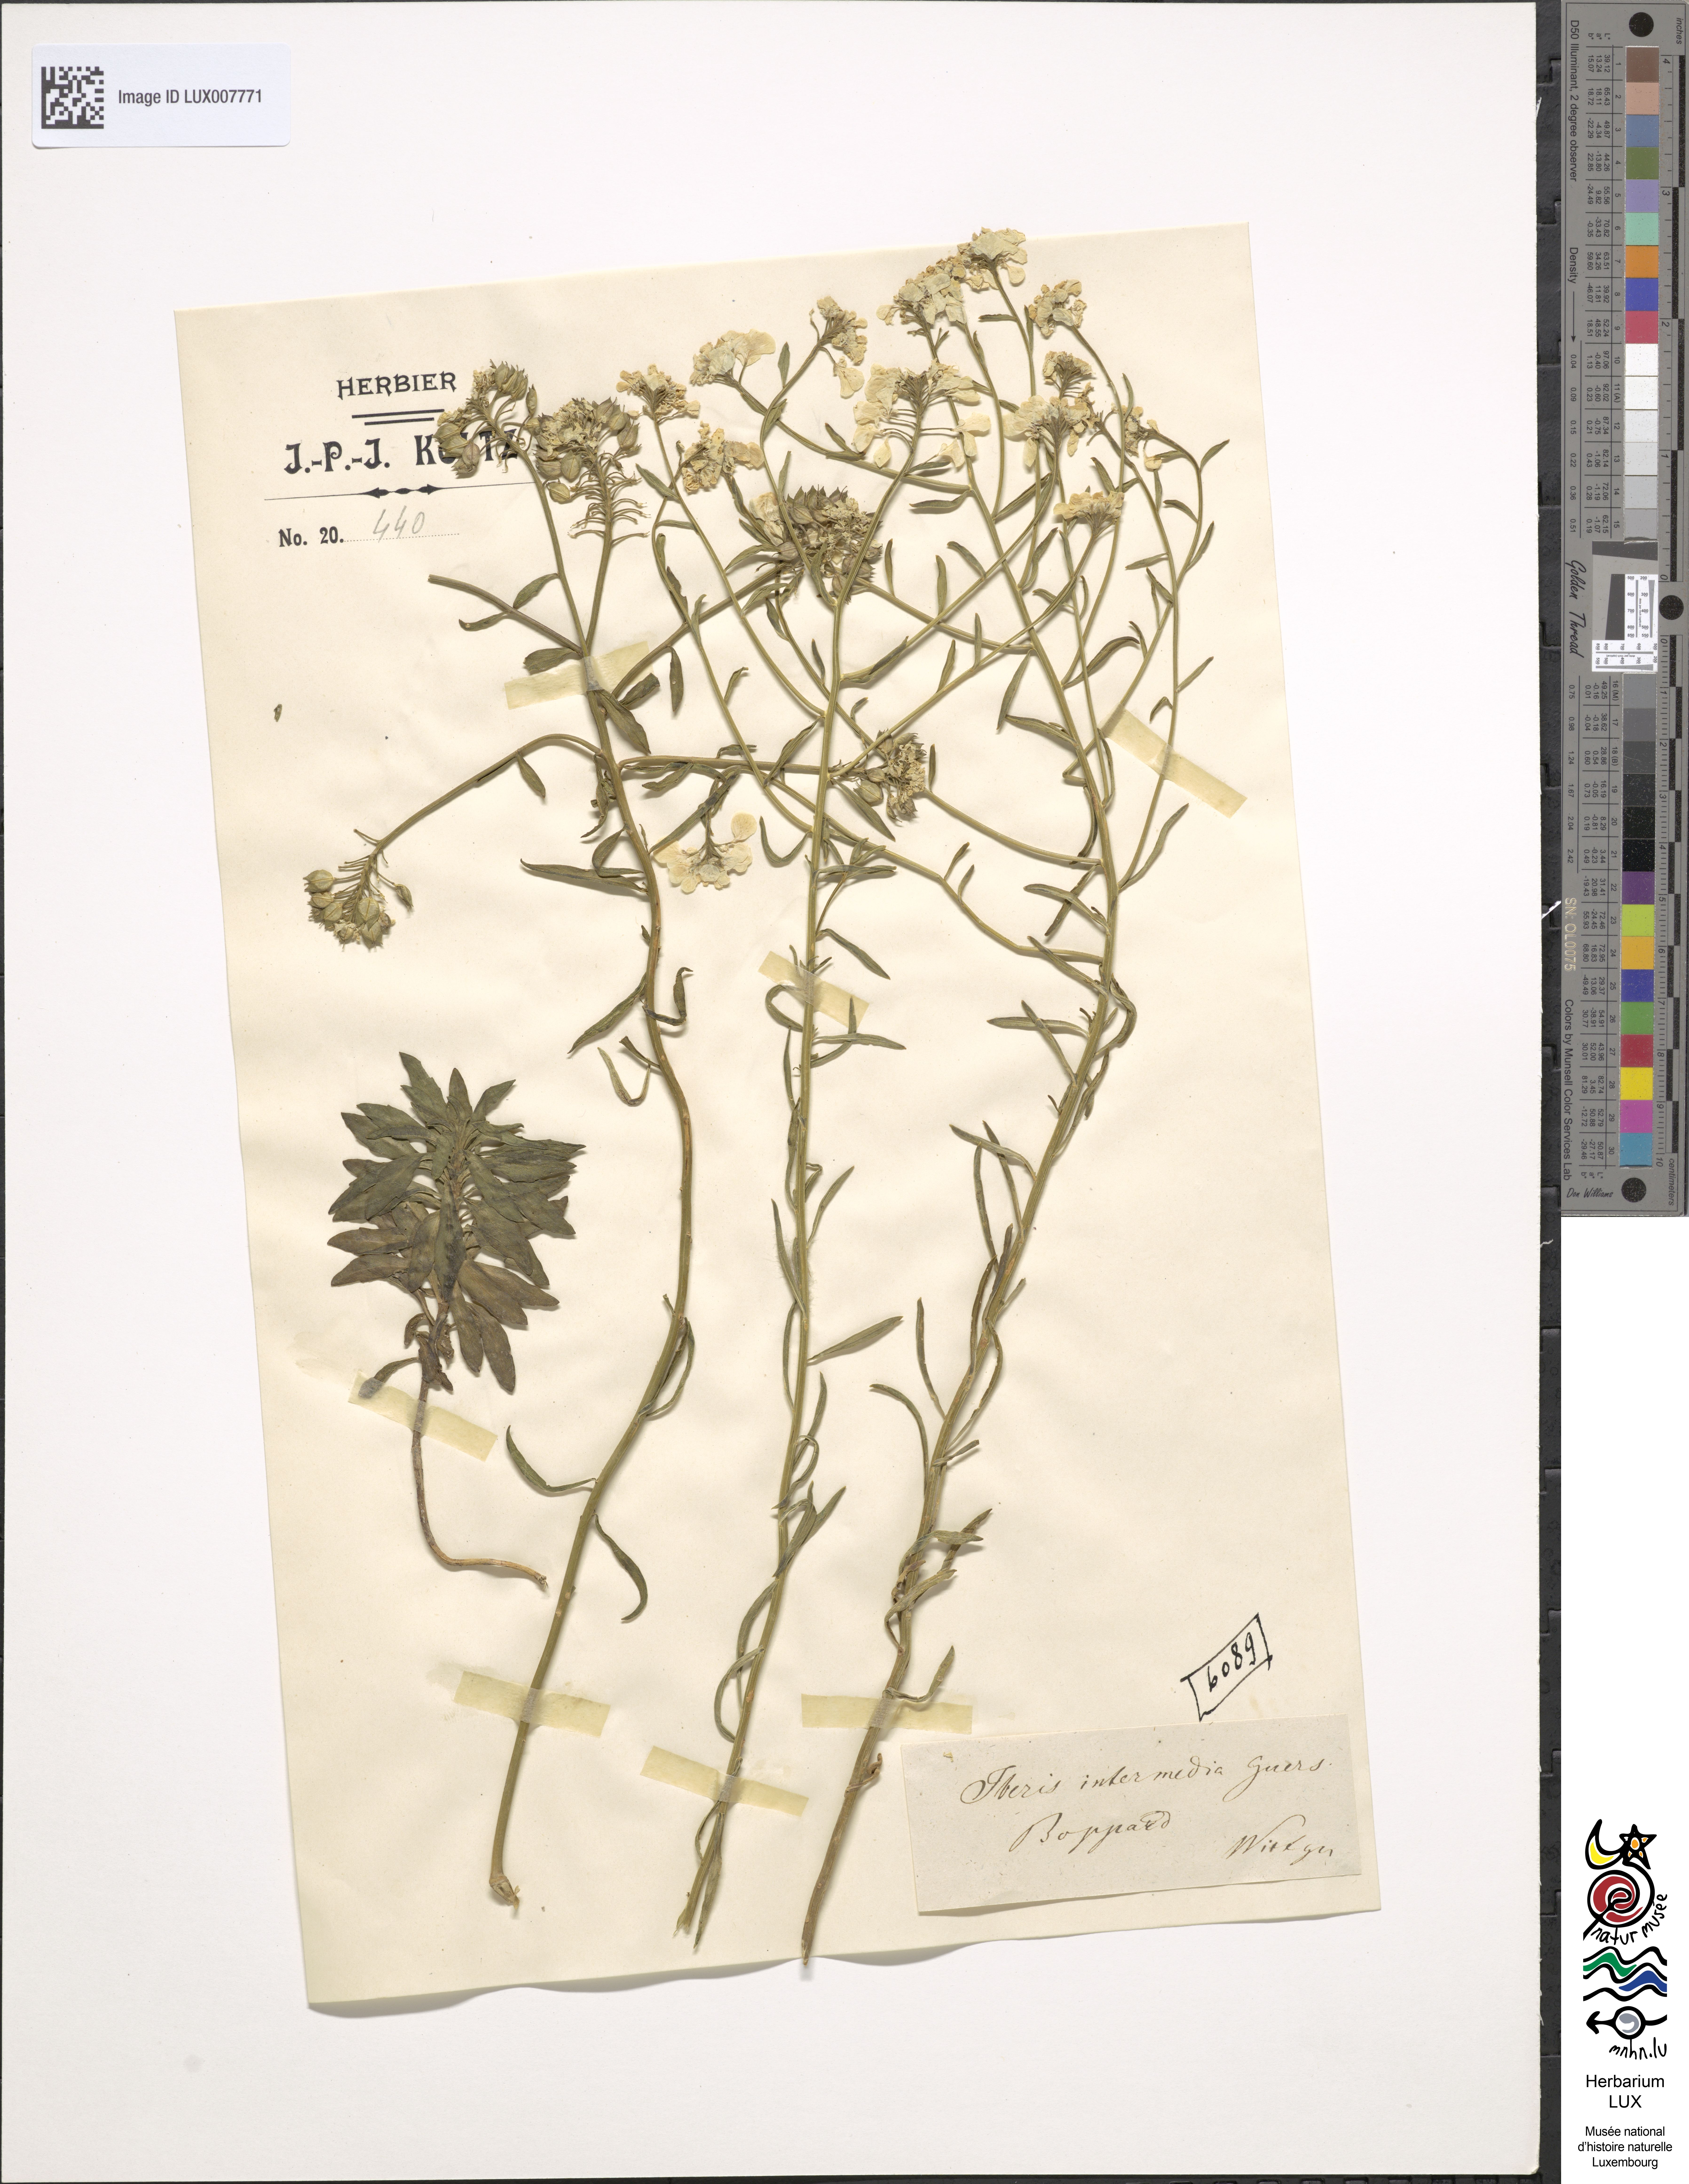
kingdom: Plantae
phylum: Tracheophyta
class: Magnoliopsida
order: Brassicales
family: Brassicaceae
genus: Iberis
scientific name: Iberis linifolia
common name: Candytuft
